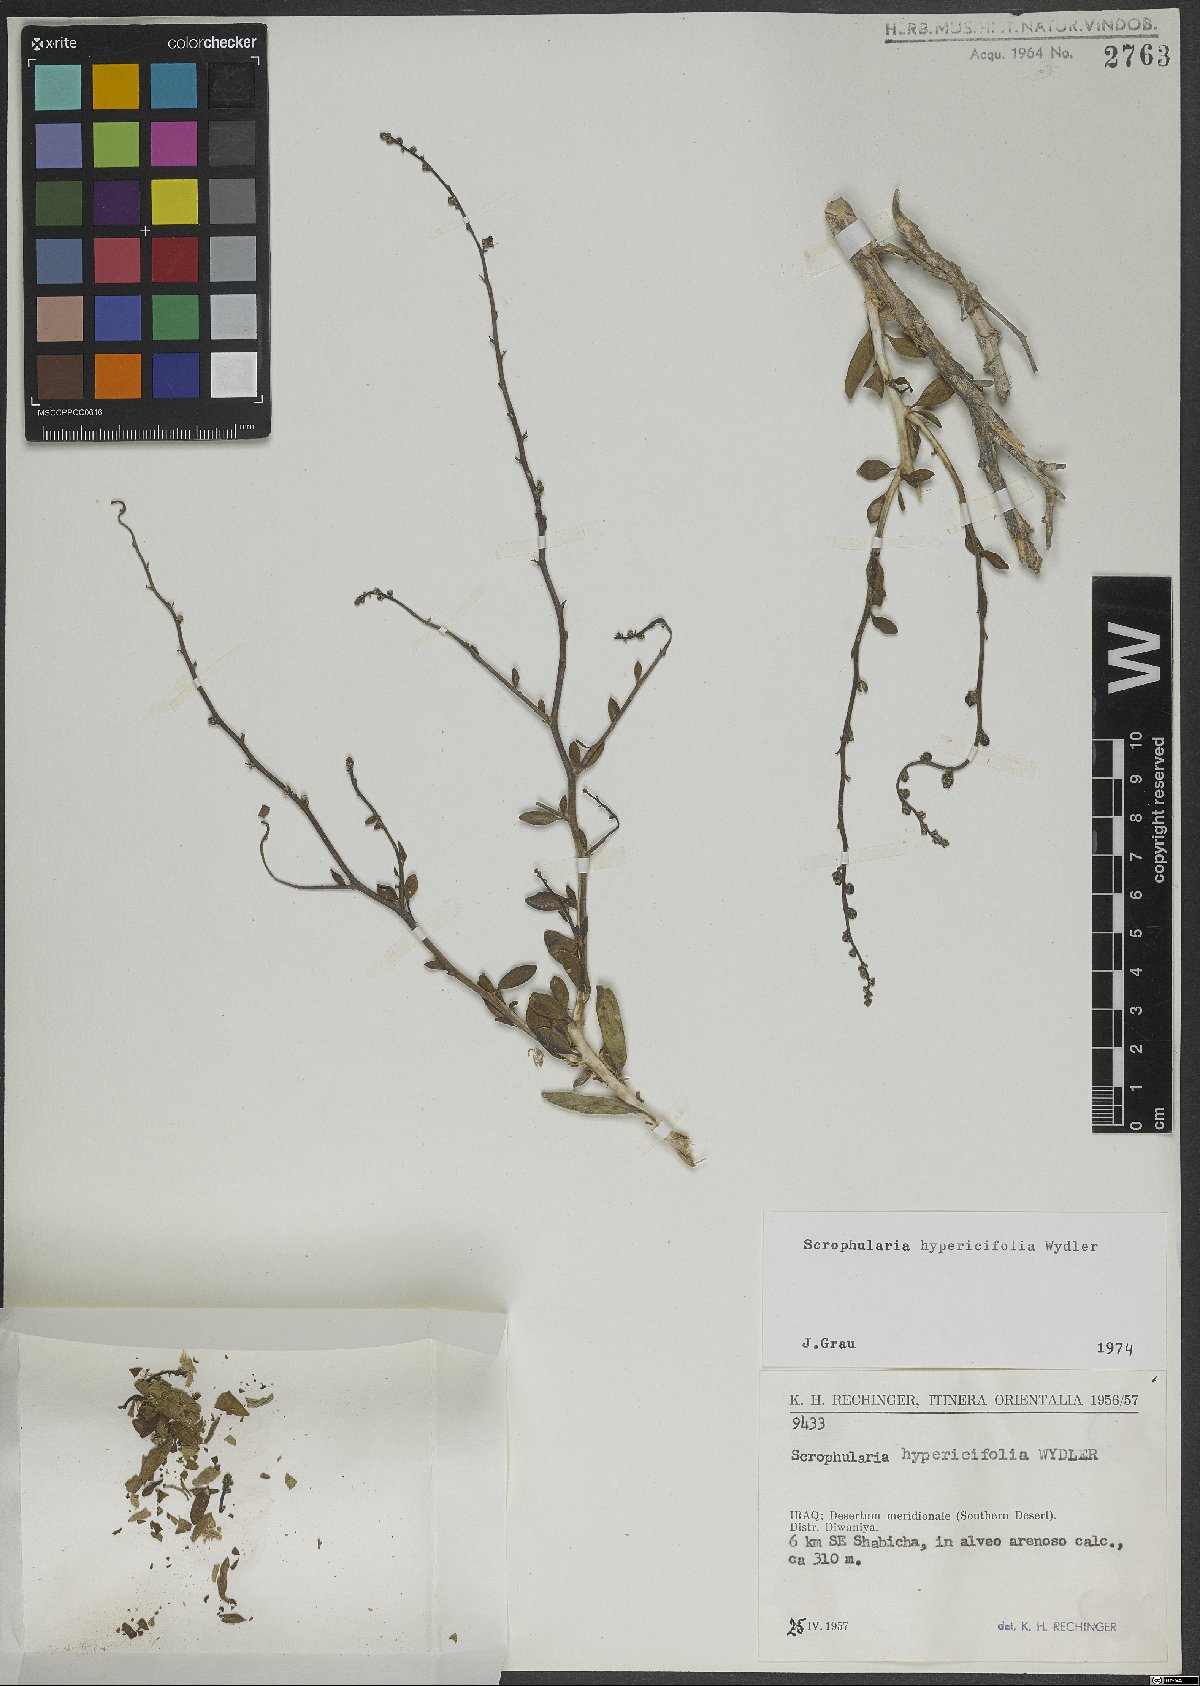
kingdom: Plantae
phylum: Tracheophyta
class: Magnoliopsida
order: Lamiales
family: Scrophulariaceae
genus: Scrophularia
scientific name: Scrophularia hypericifolia
